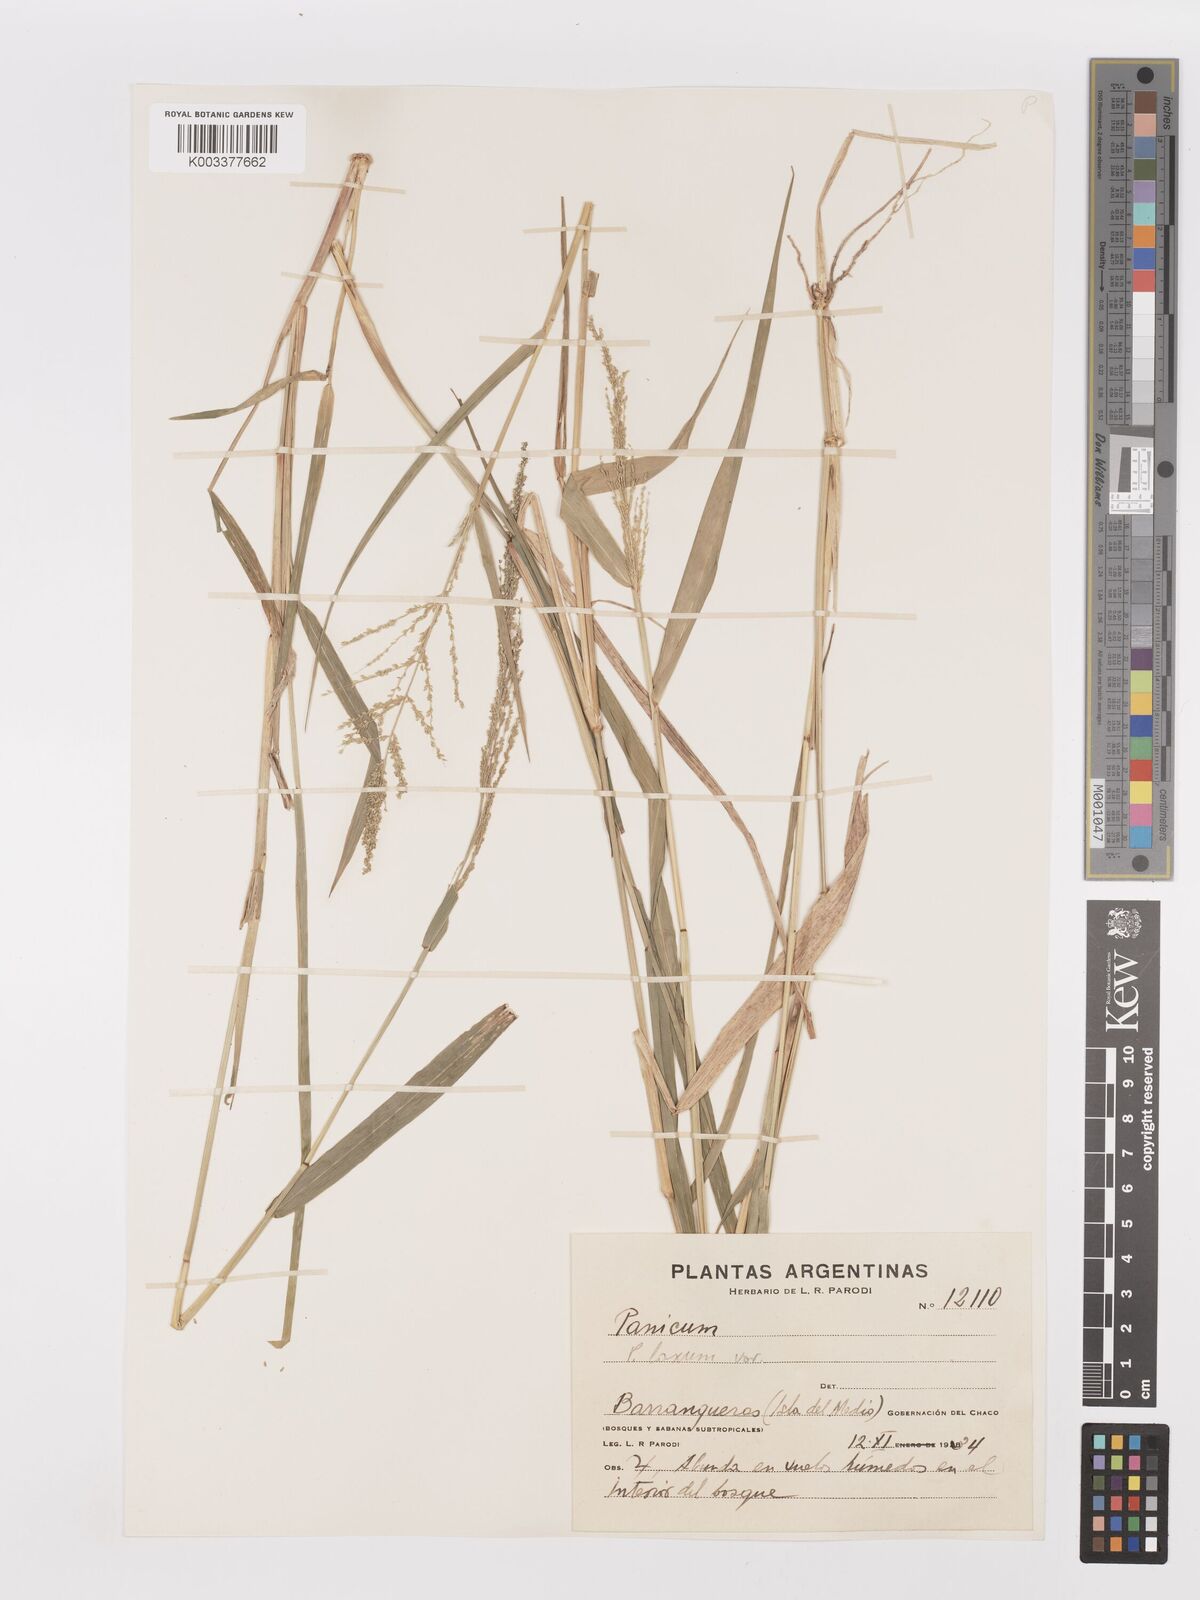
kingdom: Plantae
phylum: Tracheophyta
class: Liliopsida
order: Poales
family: Poaceae
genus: Steinchisma
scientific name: Steinchisma laxum
